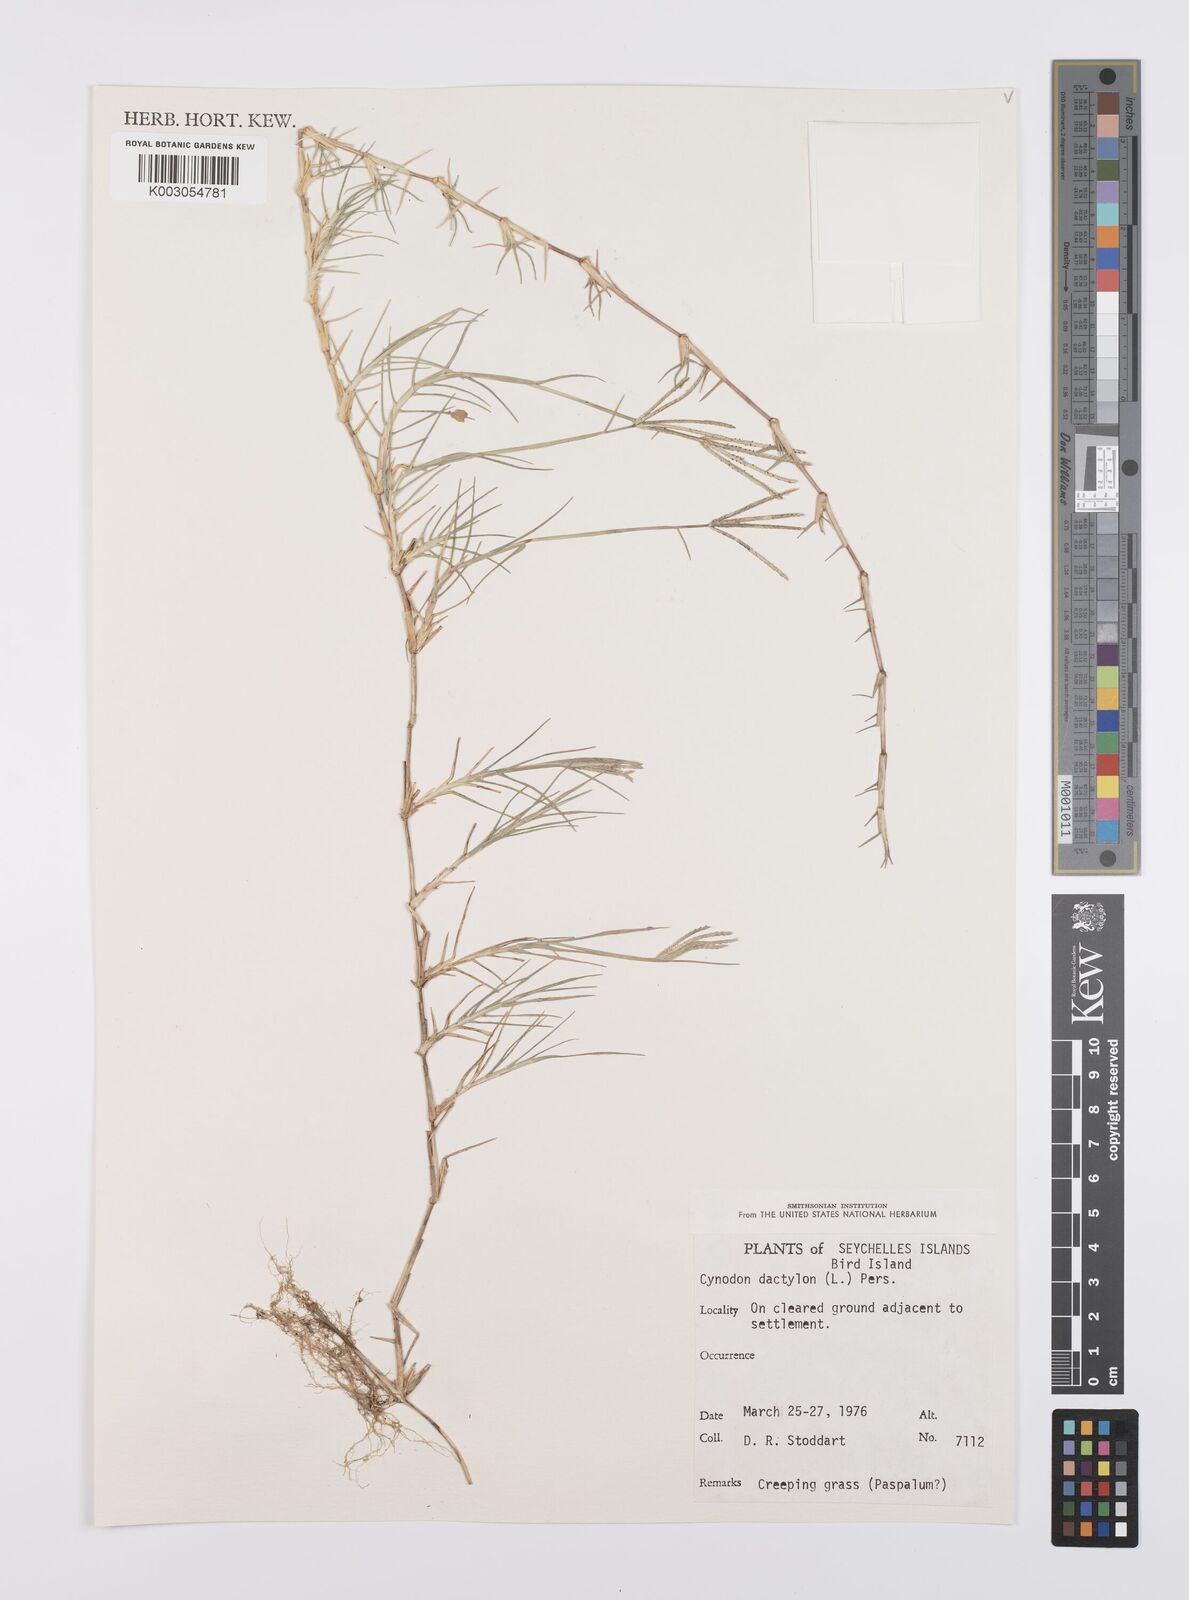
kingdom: Plantae
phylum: Tracheophyta
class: Liliopsida
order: Poales
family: Poaceae
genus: Cynodon
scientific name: Cynodon dactylon
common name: Bermuda grass
